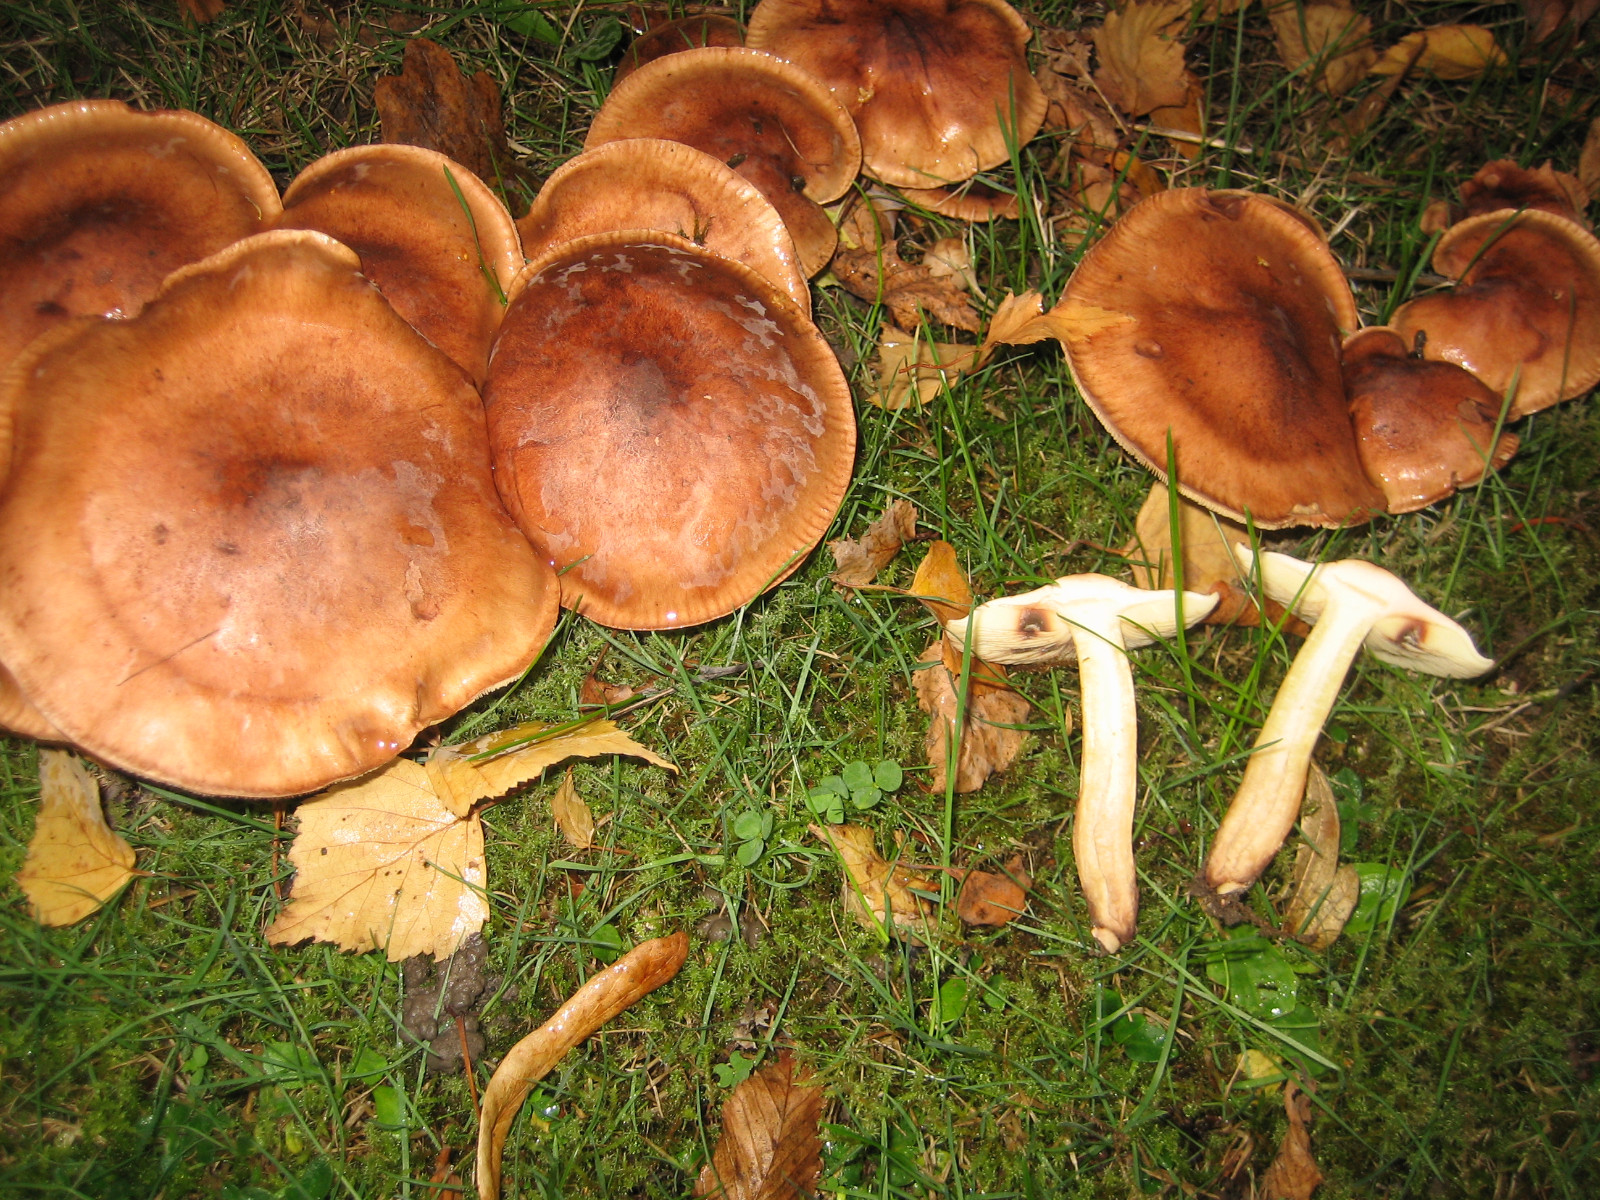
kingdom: Fungi
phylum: Basidiomycota
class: Agaricomycetes
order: Agaricales
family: Tricholomataceae
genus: Tricholoma
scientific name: Tricholoma fulvum
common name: birke-ridderhat
